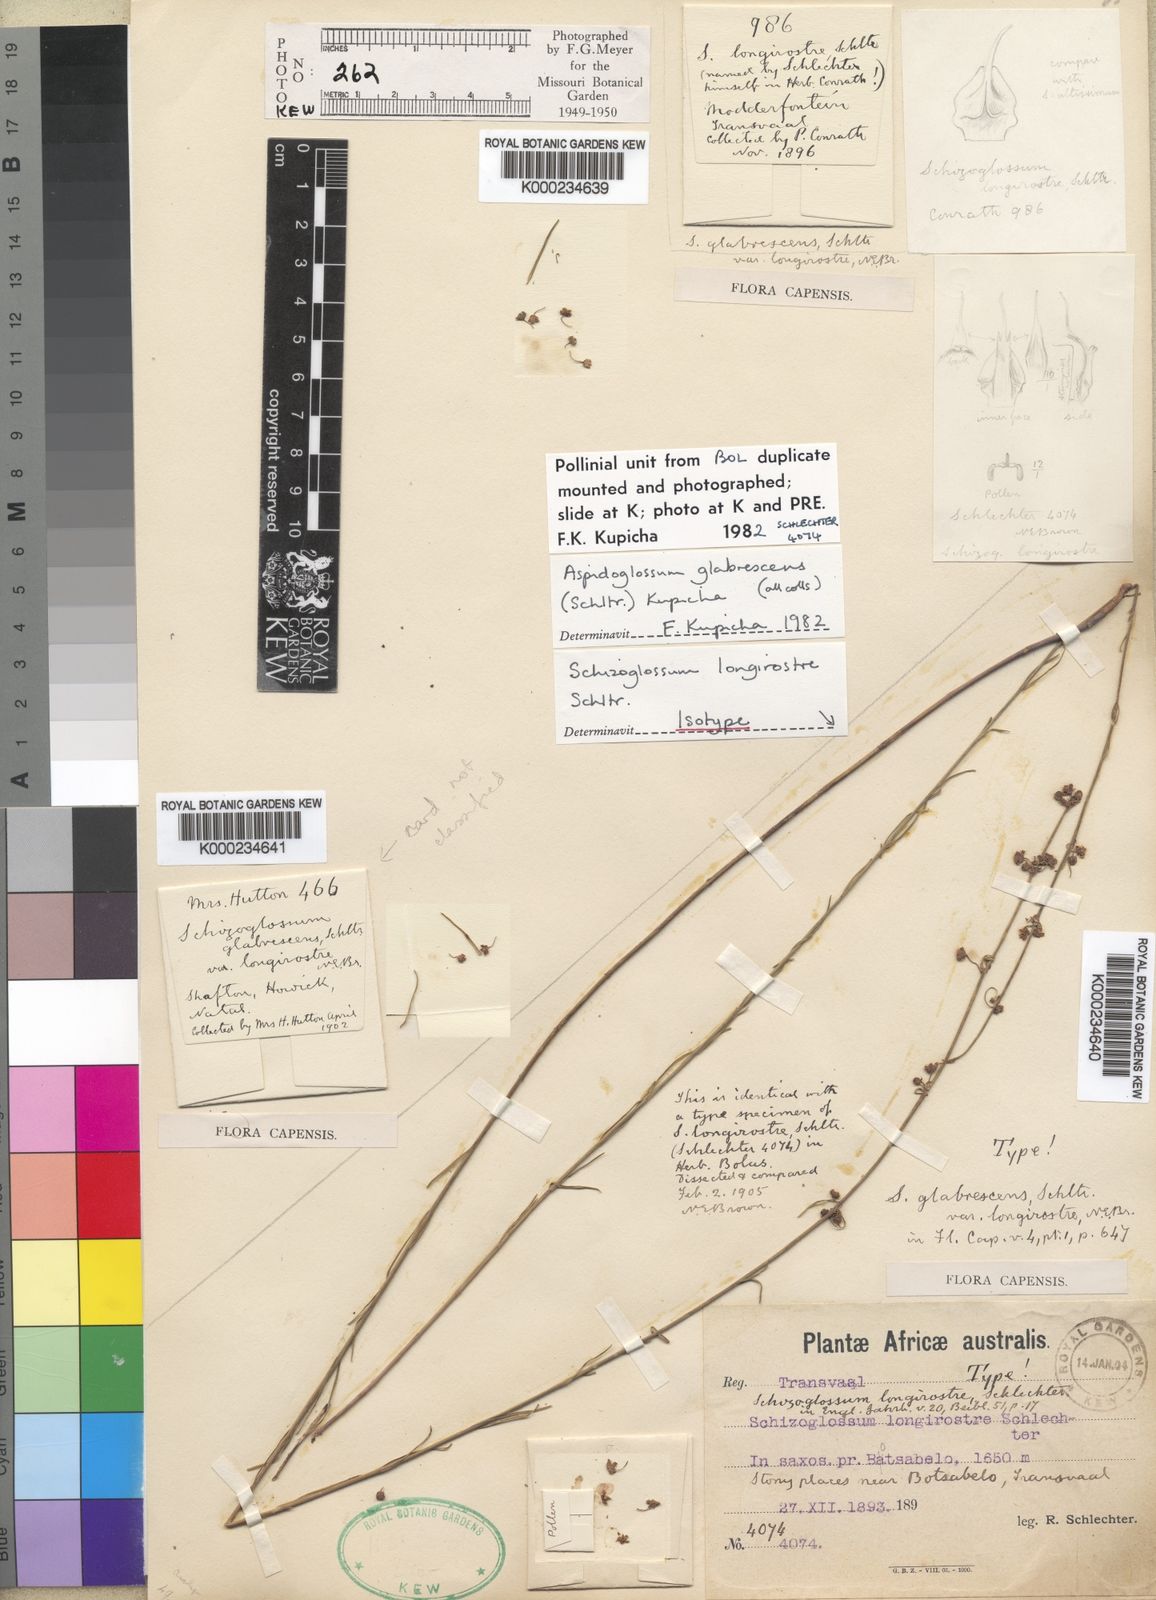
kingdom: Plantae
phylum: Tracheophyta
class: Magnoliopsida
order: Gentianales
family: Apocynaceae
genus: Aspidoglossum
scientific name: Aspidoglossum glabrescens
